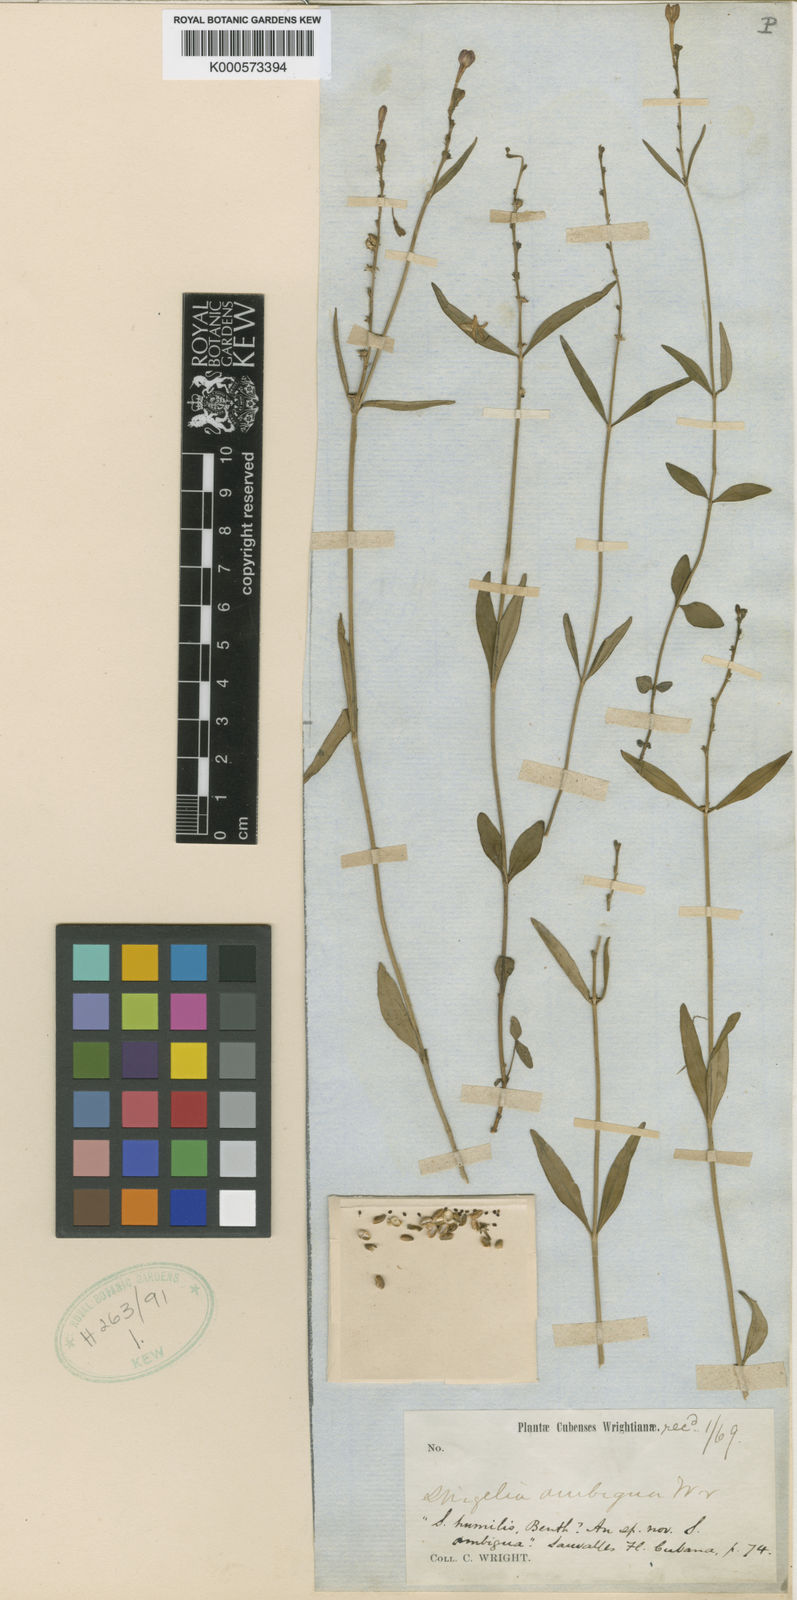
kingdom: Plantae
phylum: Tracheophyta
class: Magnoliopsida
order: Gentianales
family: Loganiaceae
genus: Spigelia
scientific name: Spigelia guianensis
